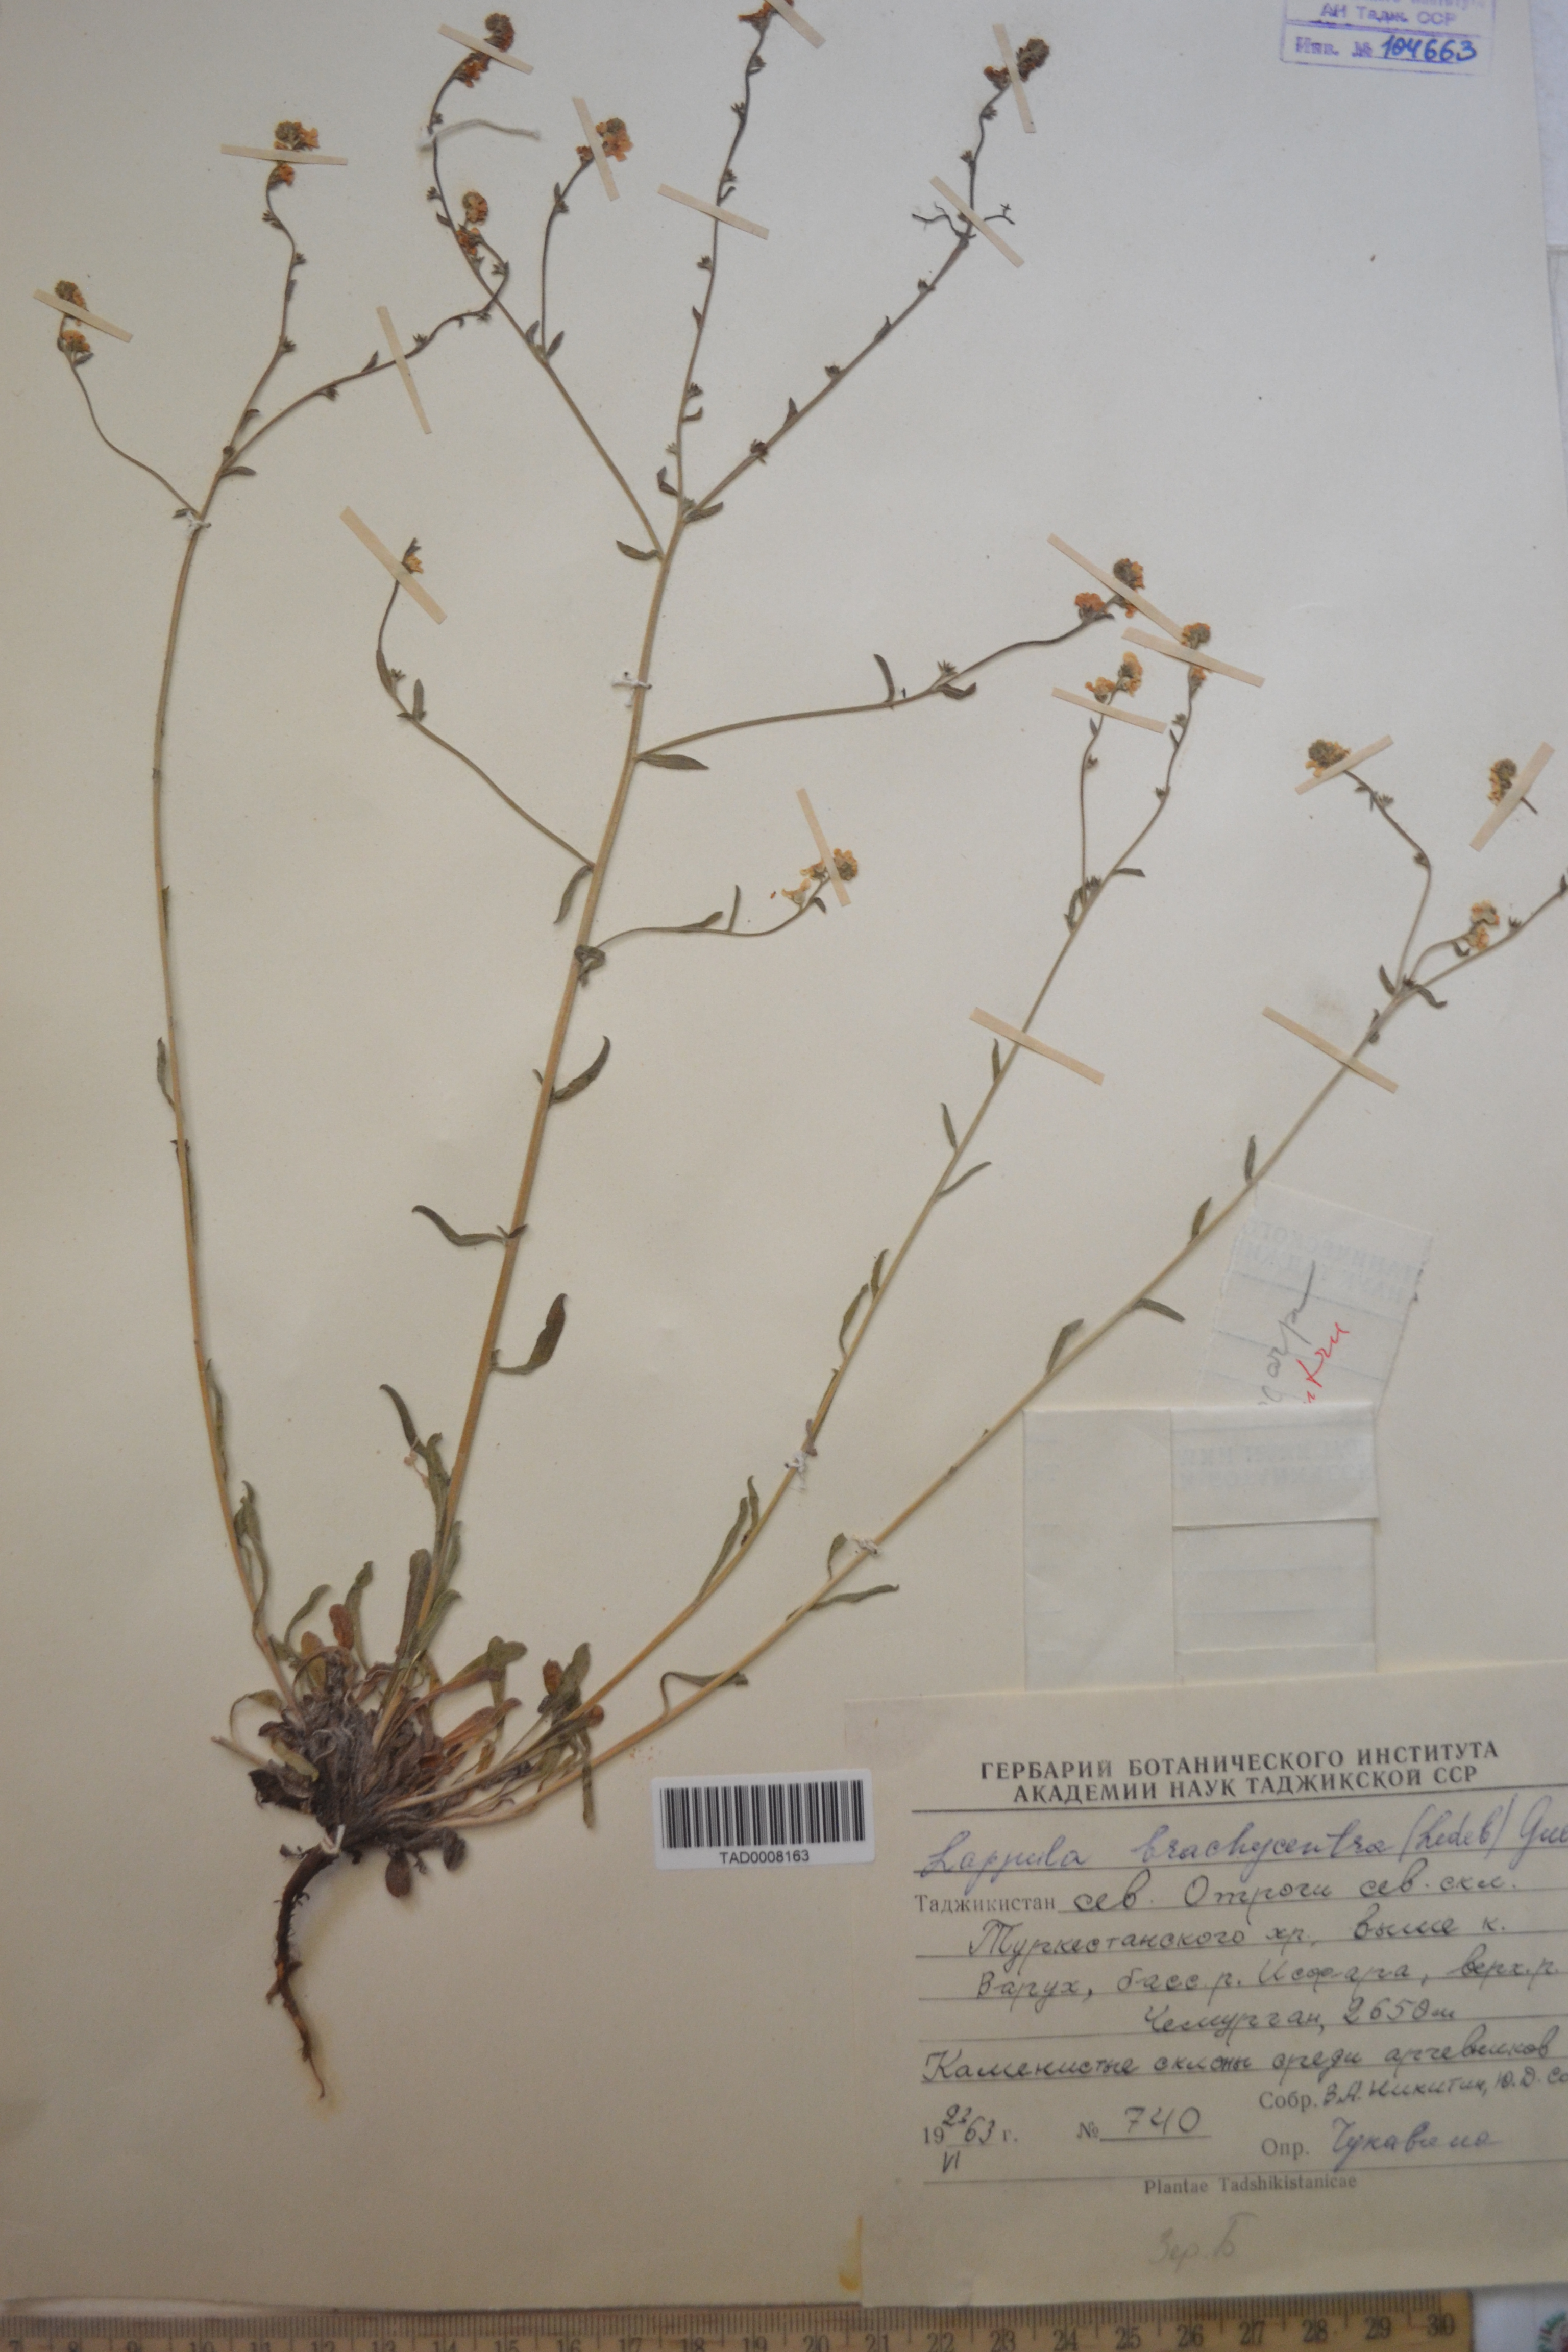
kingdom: Plantae
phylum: Tracheophyta
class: Magnoliopsida
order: Boraginales
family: Boraginaceae
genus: Lappula
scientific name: Lappula brachycentra
